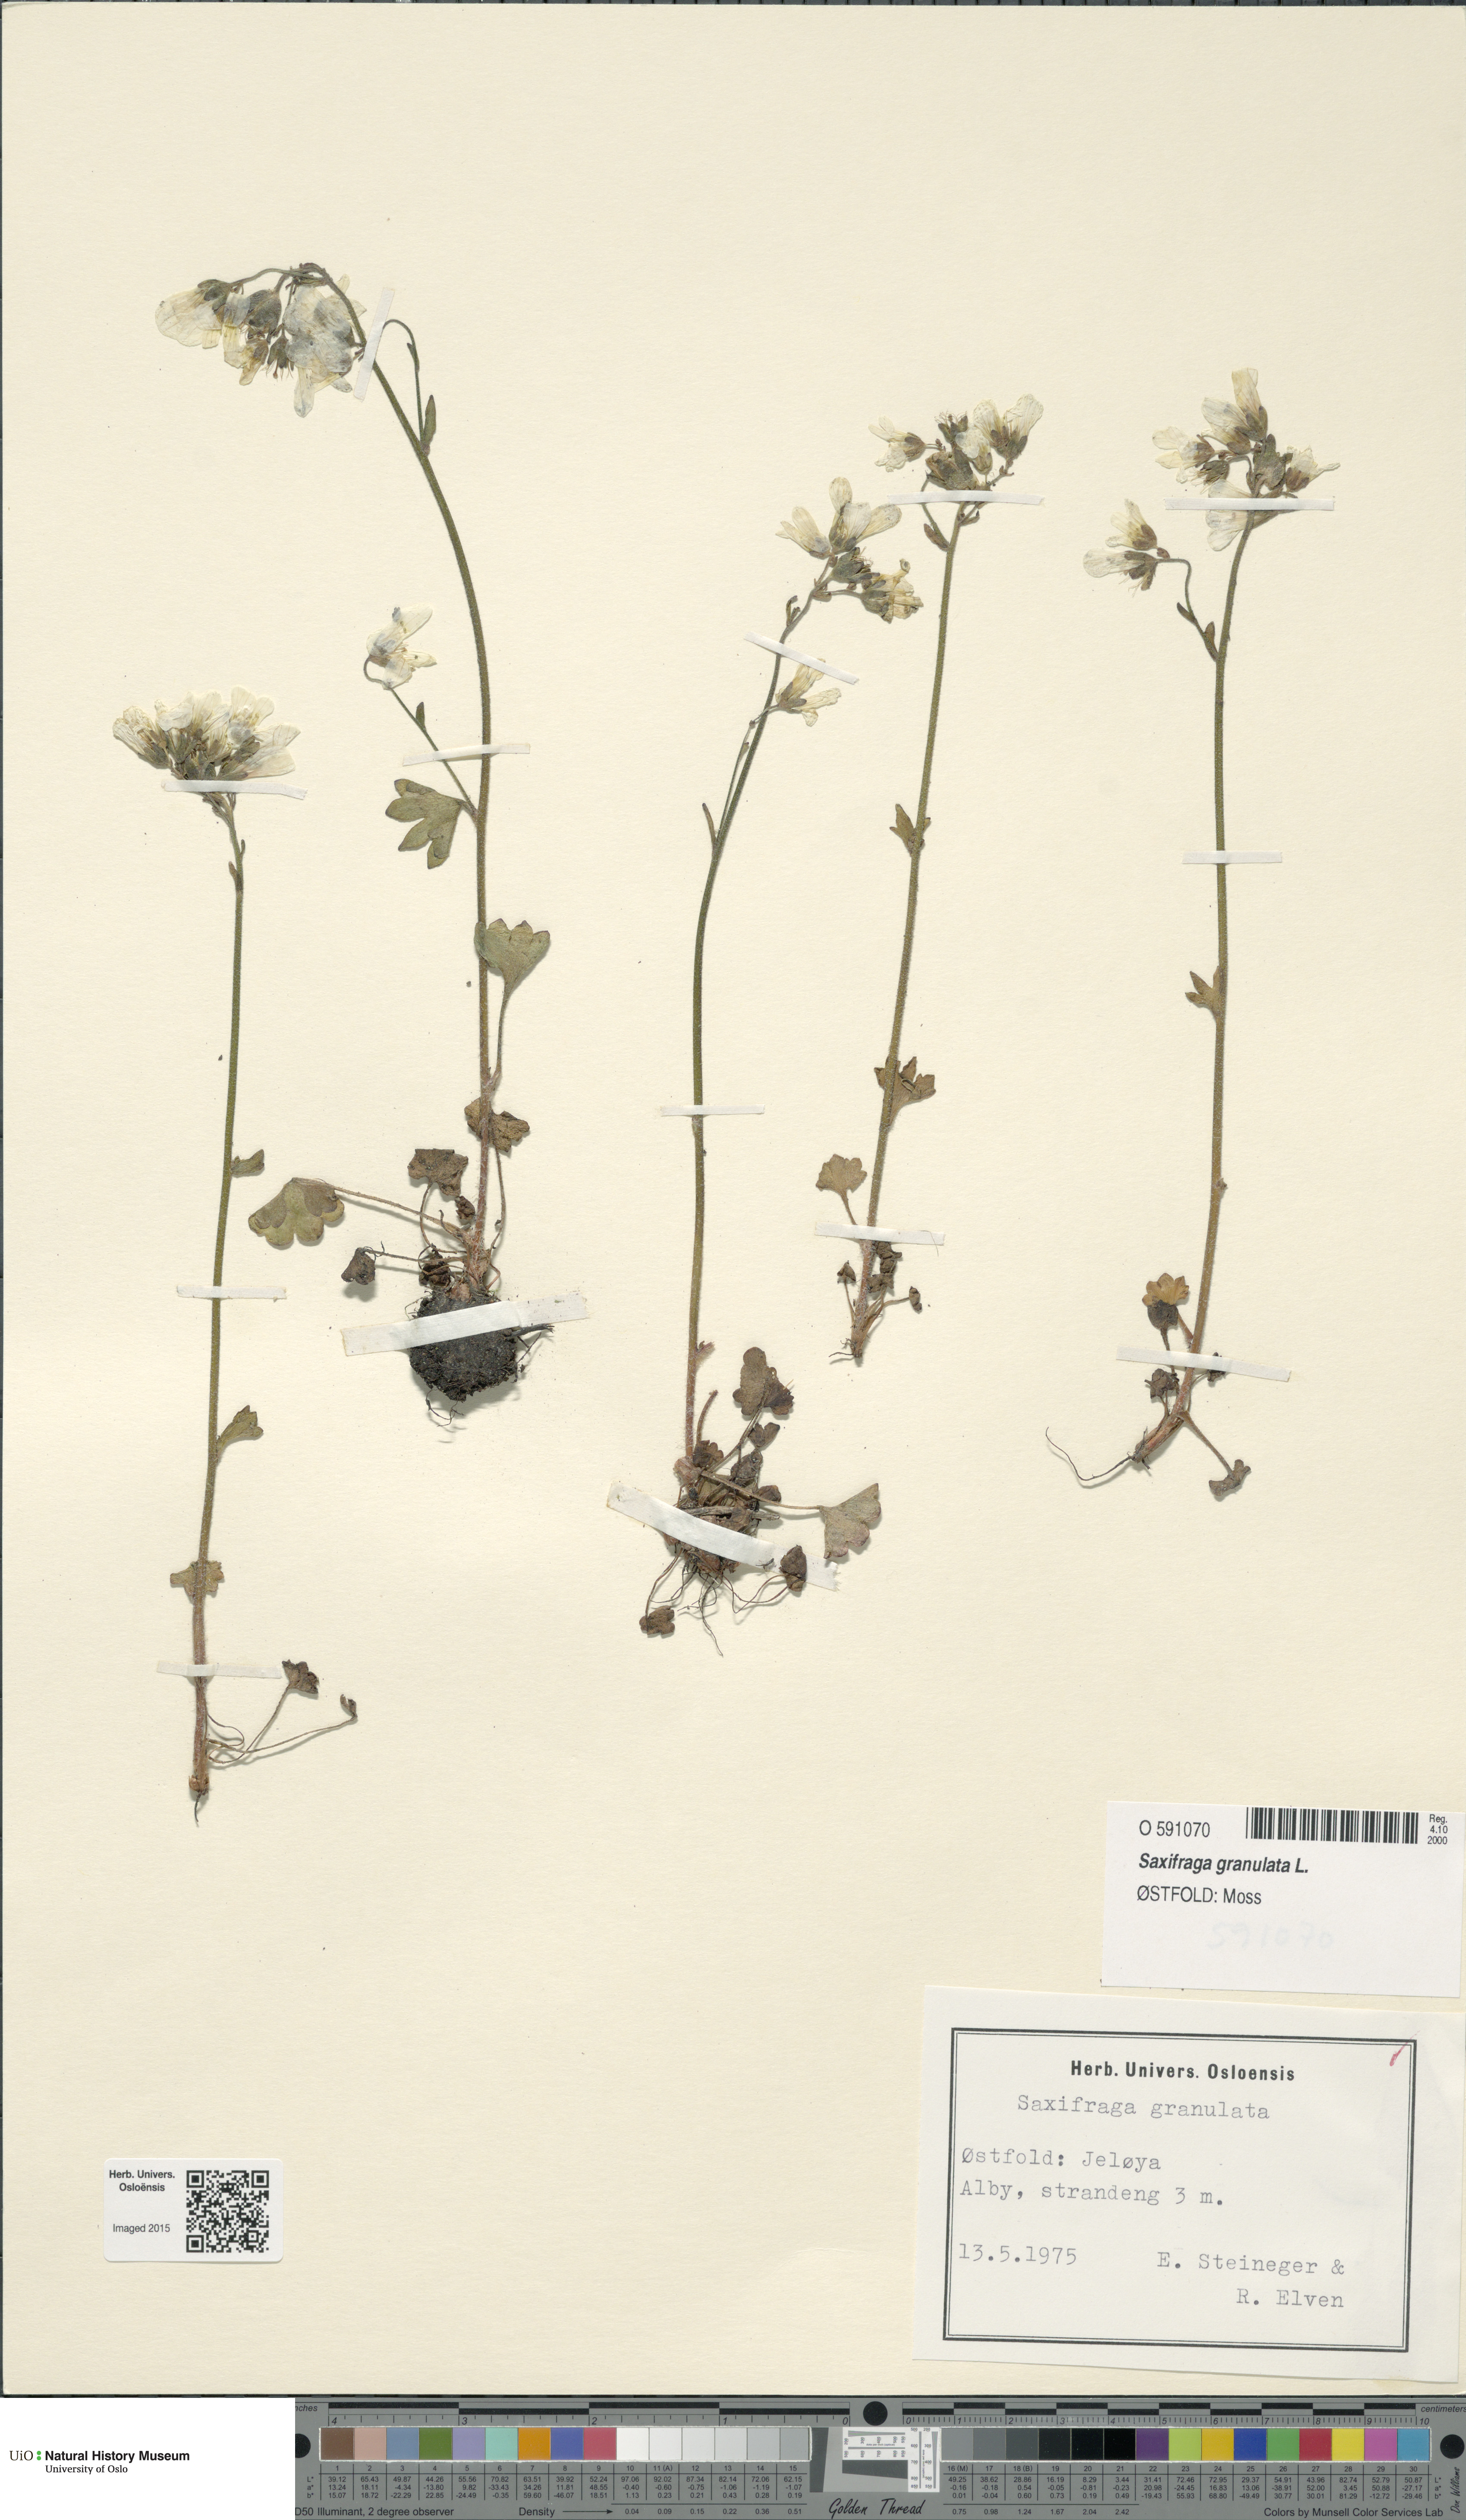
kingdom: Plantae
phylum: Tracheophyta
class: Magnoliopsida
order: Saxifragales
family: Saxifragaceae
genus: Saxifraga
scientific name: Saxifraga granulata
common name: Meadow saxifrage
